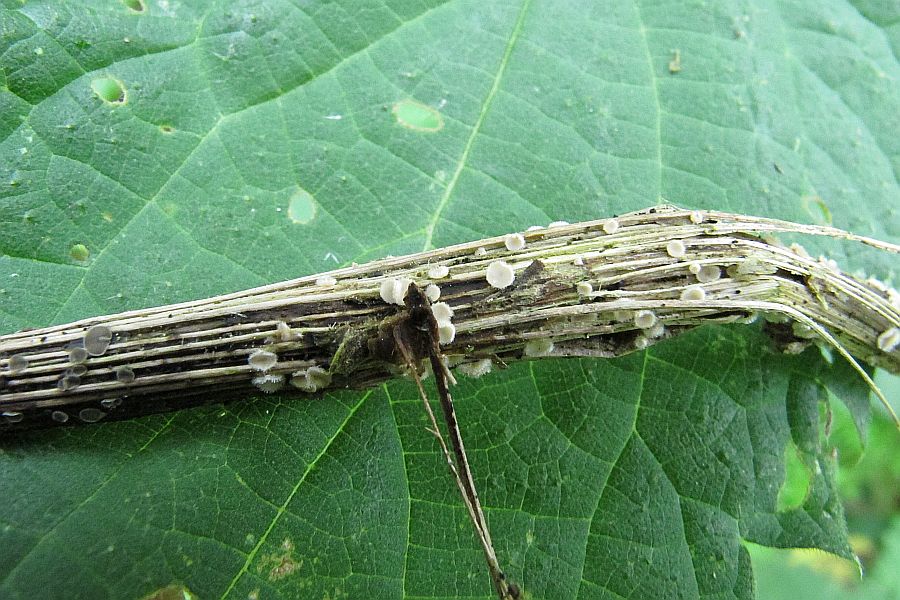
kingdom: Fungi
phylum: Ascomycota
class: Leotiomycetes
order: Helotiales
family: Lachnaceae
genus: Lachnum
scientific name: Lachnum mollissimum
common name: flødefarvet frynseskive
